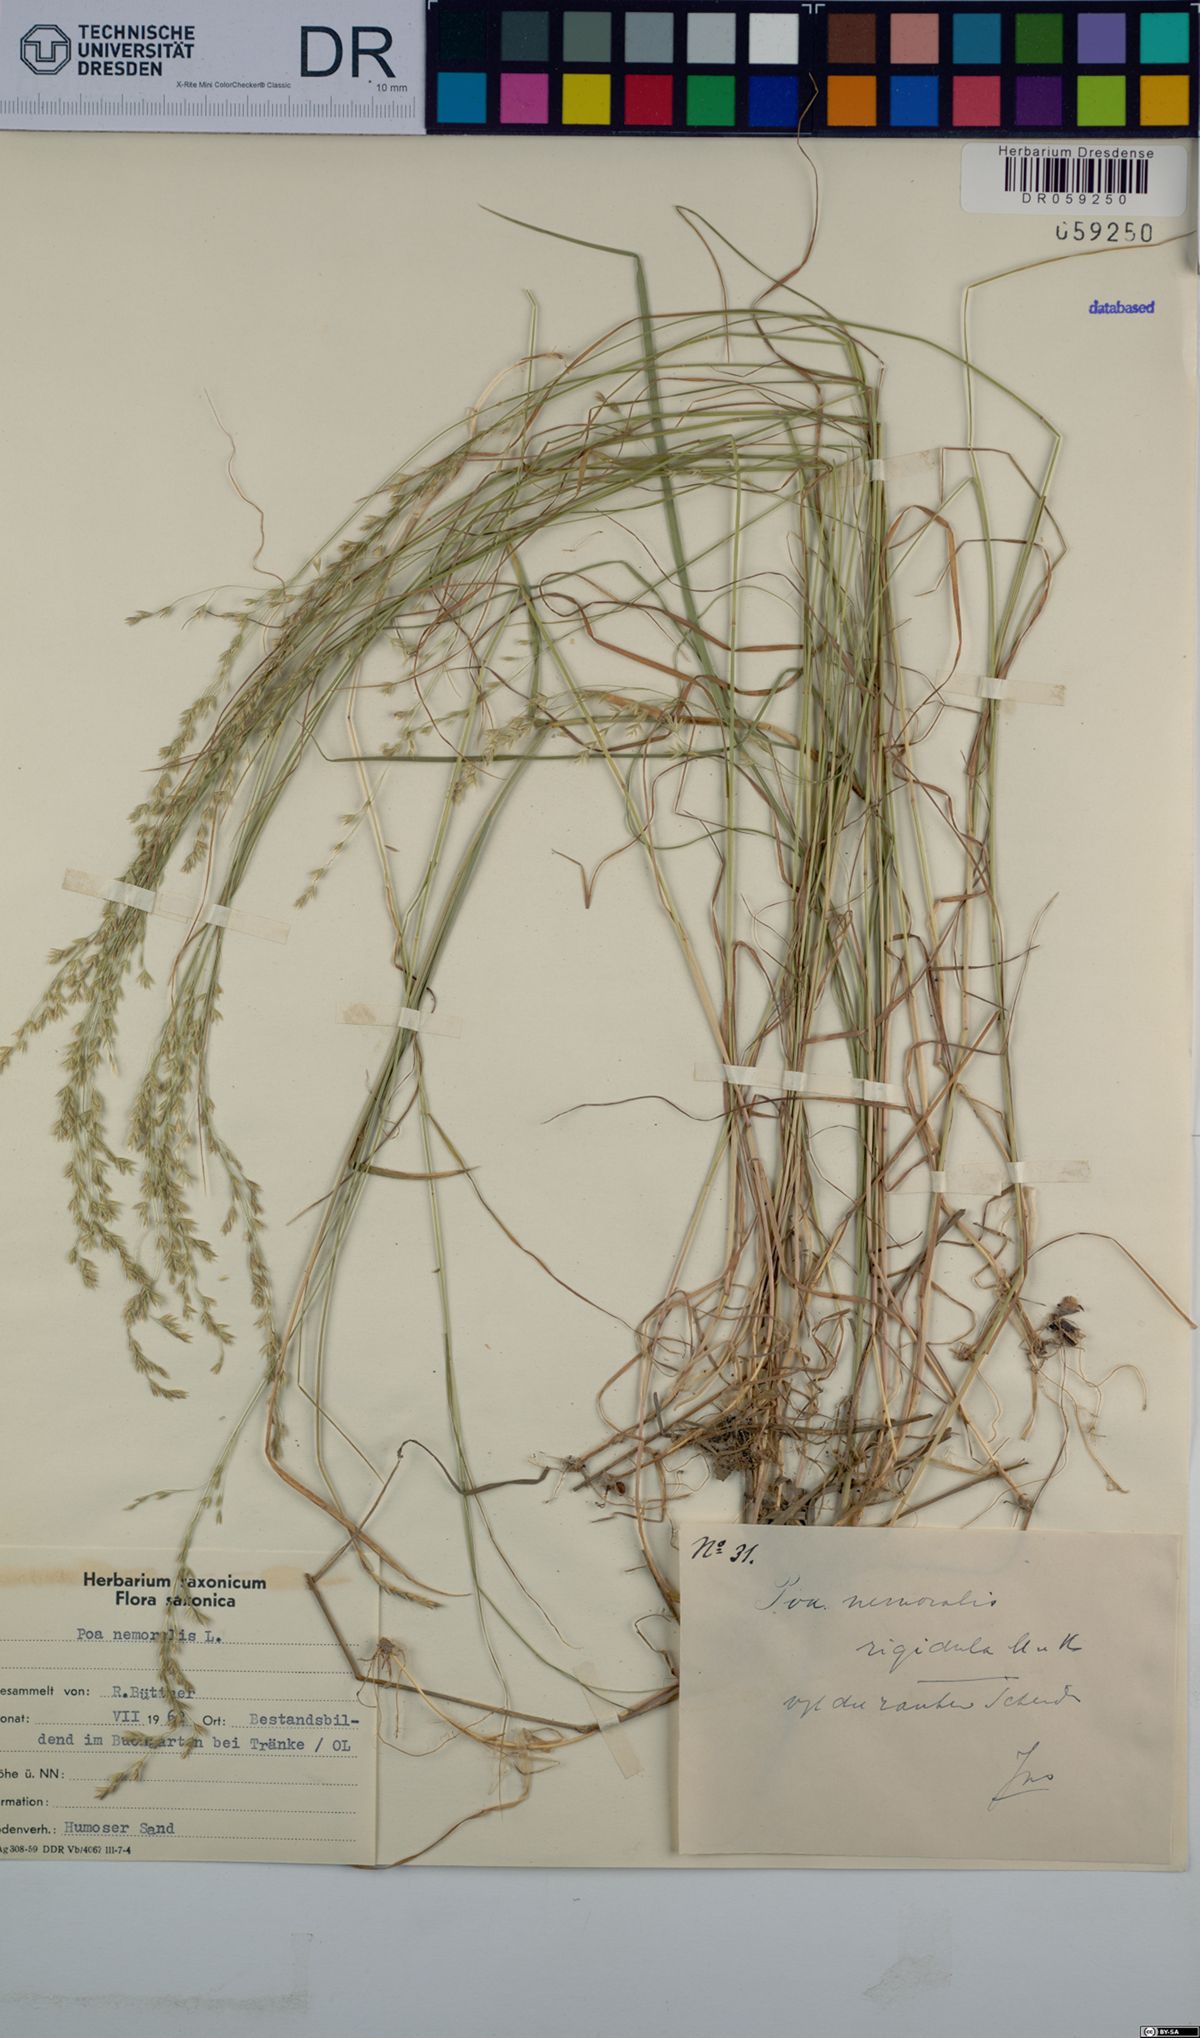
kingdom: Plantae
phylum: Tracheophyta
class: Liliopsida
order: Poales
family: Poaceae
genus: Poa
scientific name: Poa nemoralis
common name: Wood bluegrass
